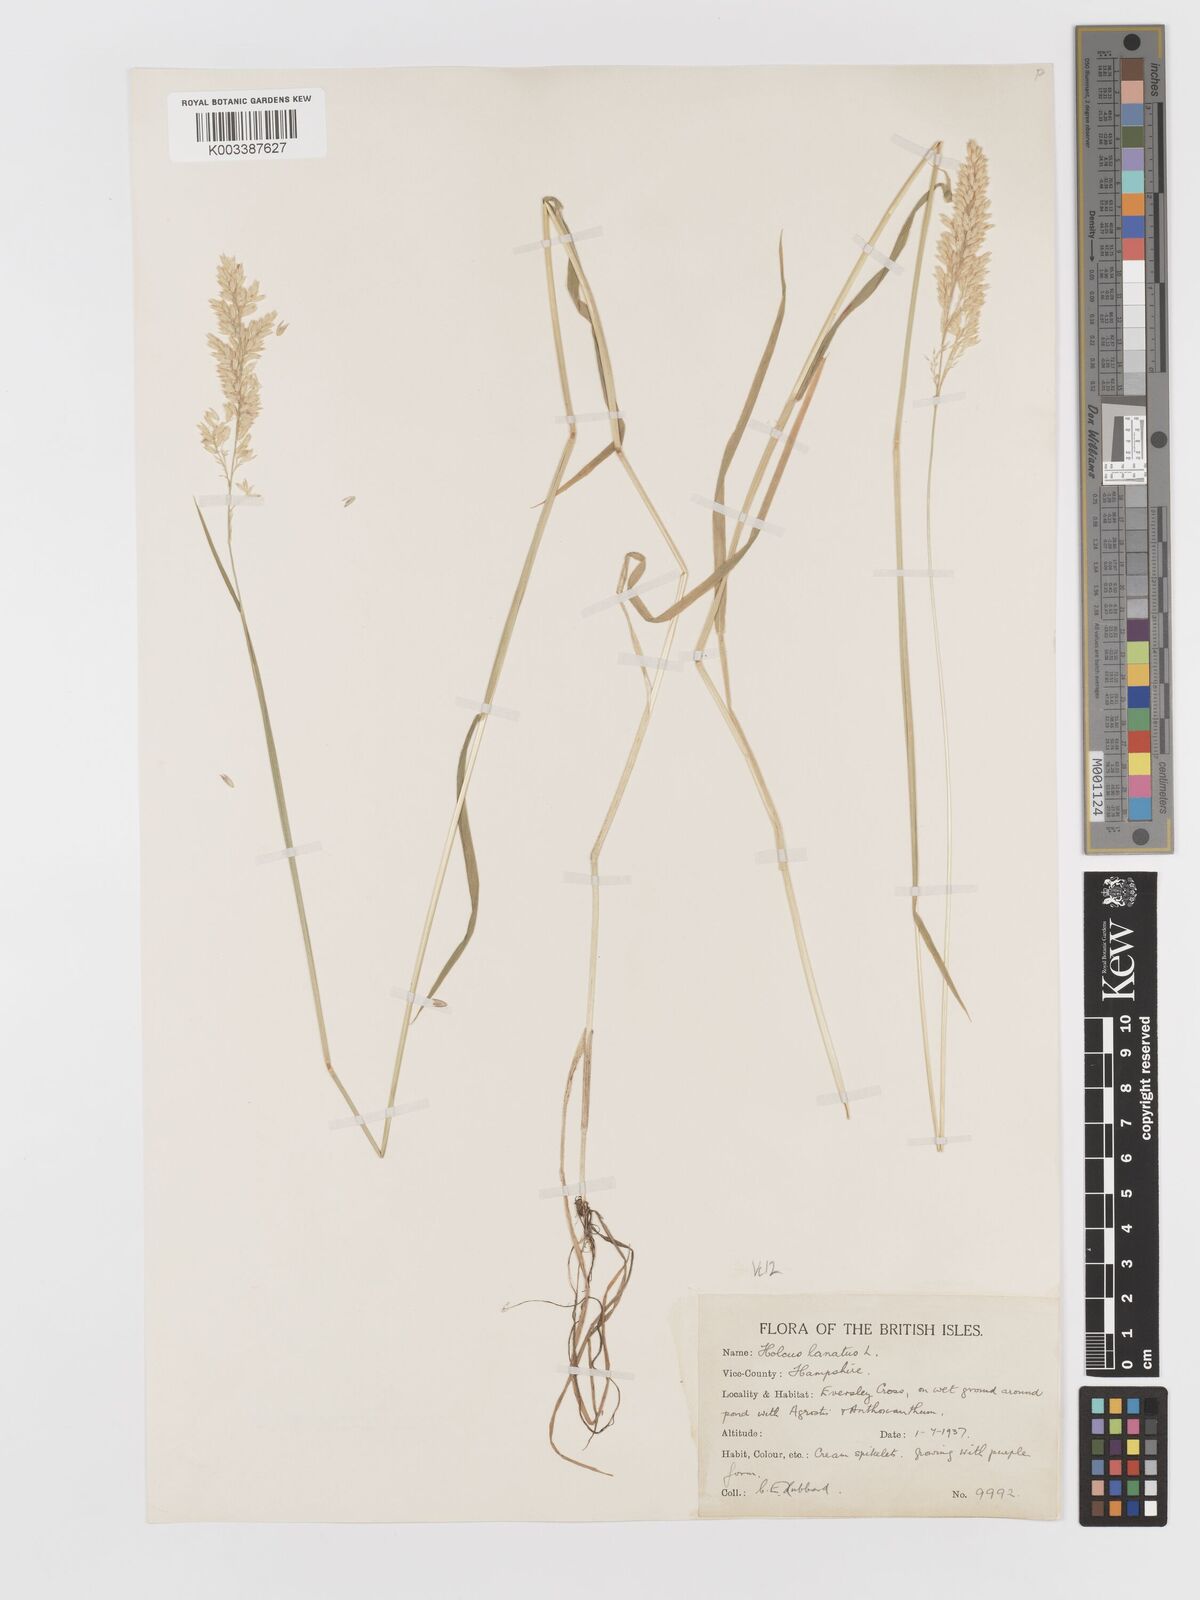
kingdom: Plantae
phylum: Tracheophyta
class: Liliopsida
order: Poales
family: Poaceae
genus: Holcus
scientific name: Holcus lanatus
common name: Yorkshire-fog
